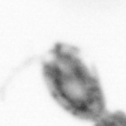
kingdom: Animalia
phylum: Arthropoda
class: Copepoda
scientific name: Copepoda
